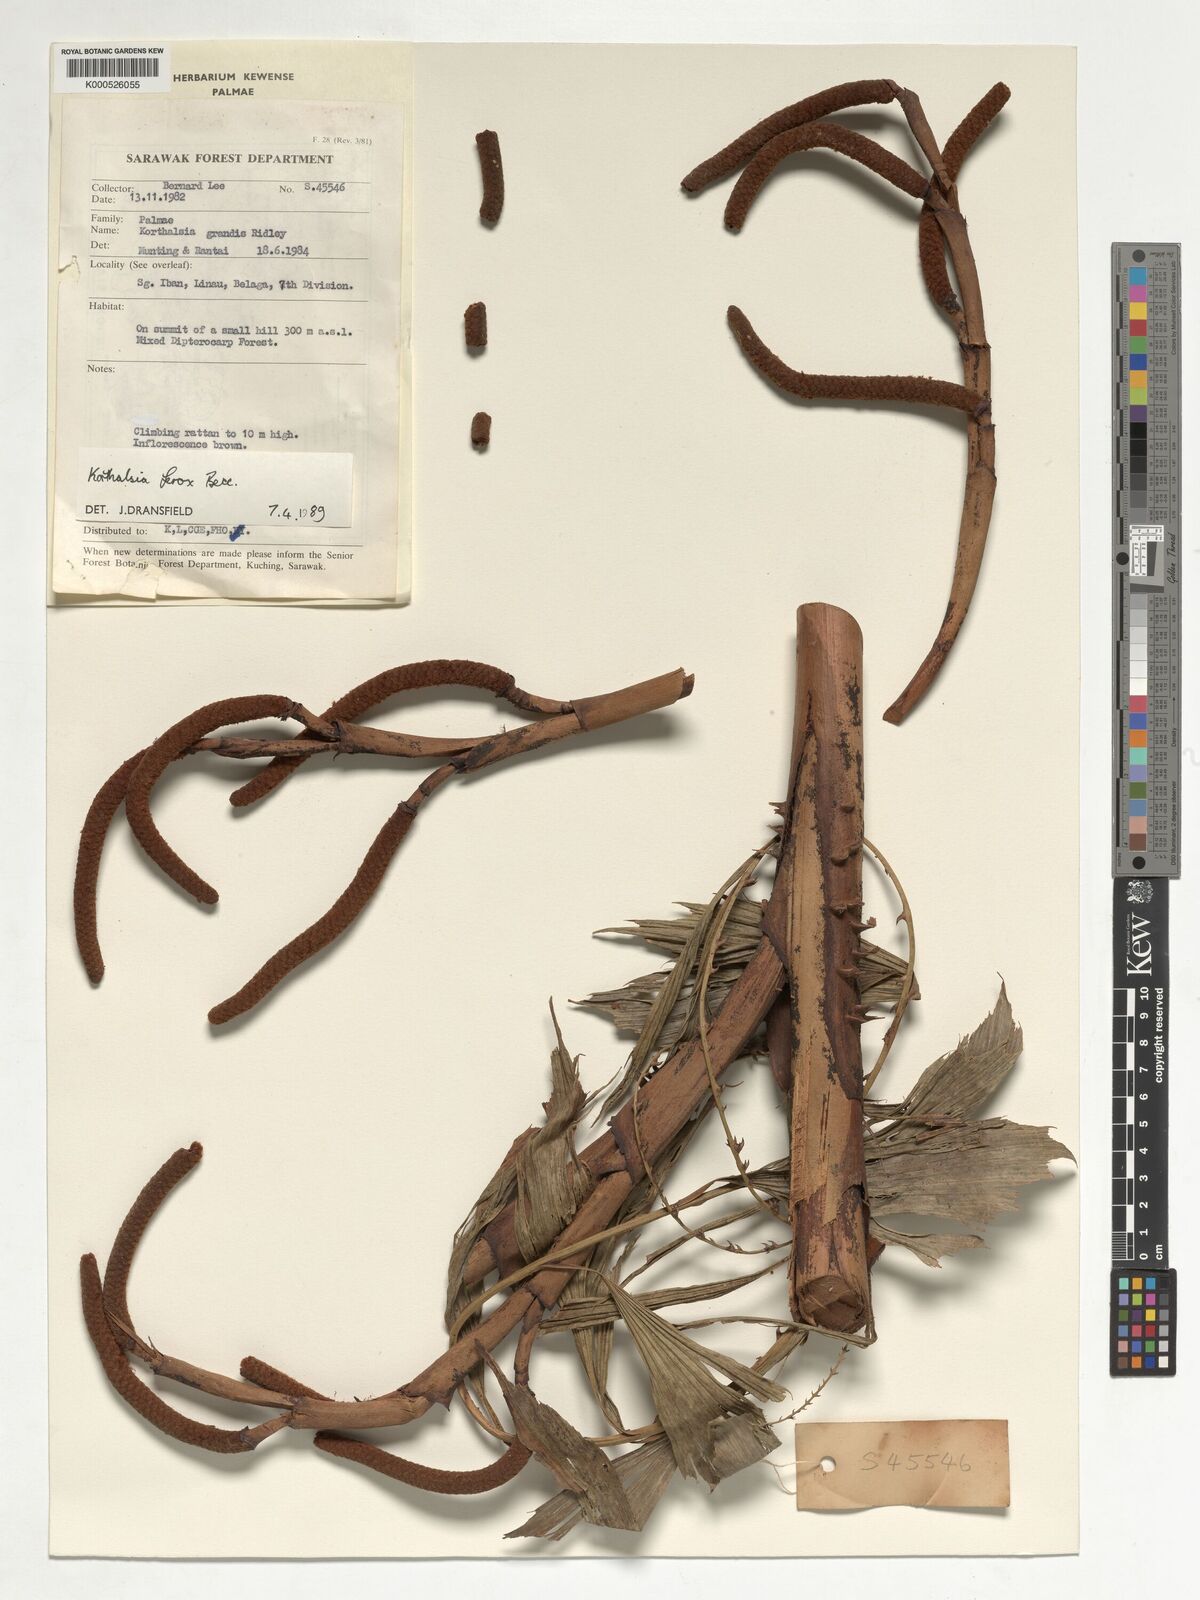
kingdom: Plantae
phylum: Tracheophyta
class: Liliopsida
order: Arecales
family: Arecaceae
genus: Korthalsia
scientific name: Korthalsia ferox
